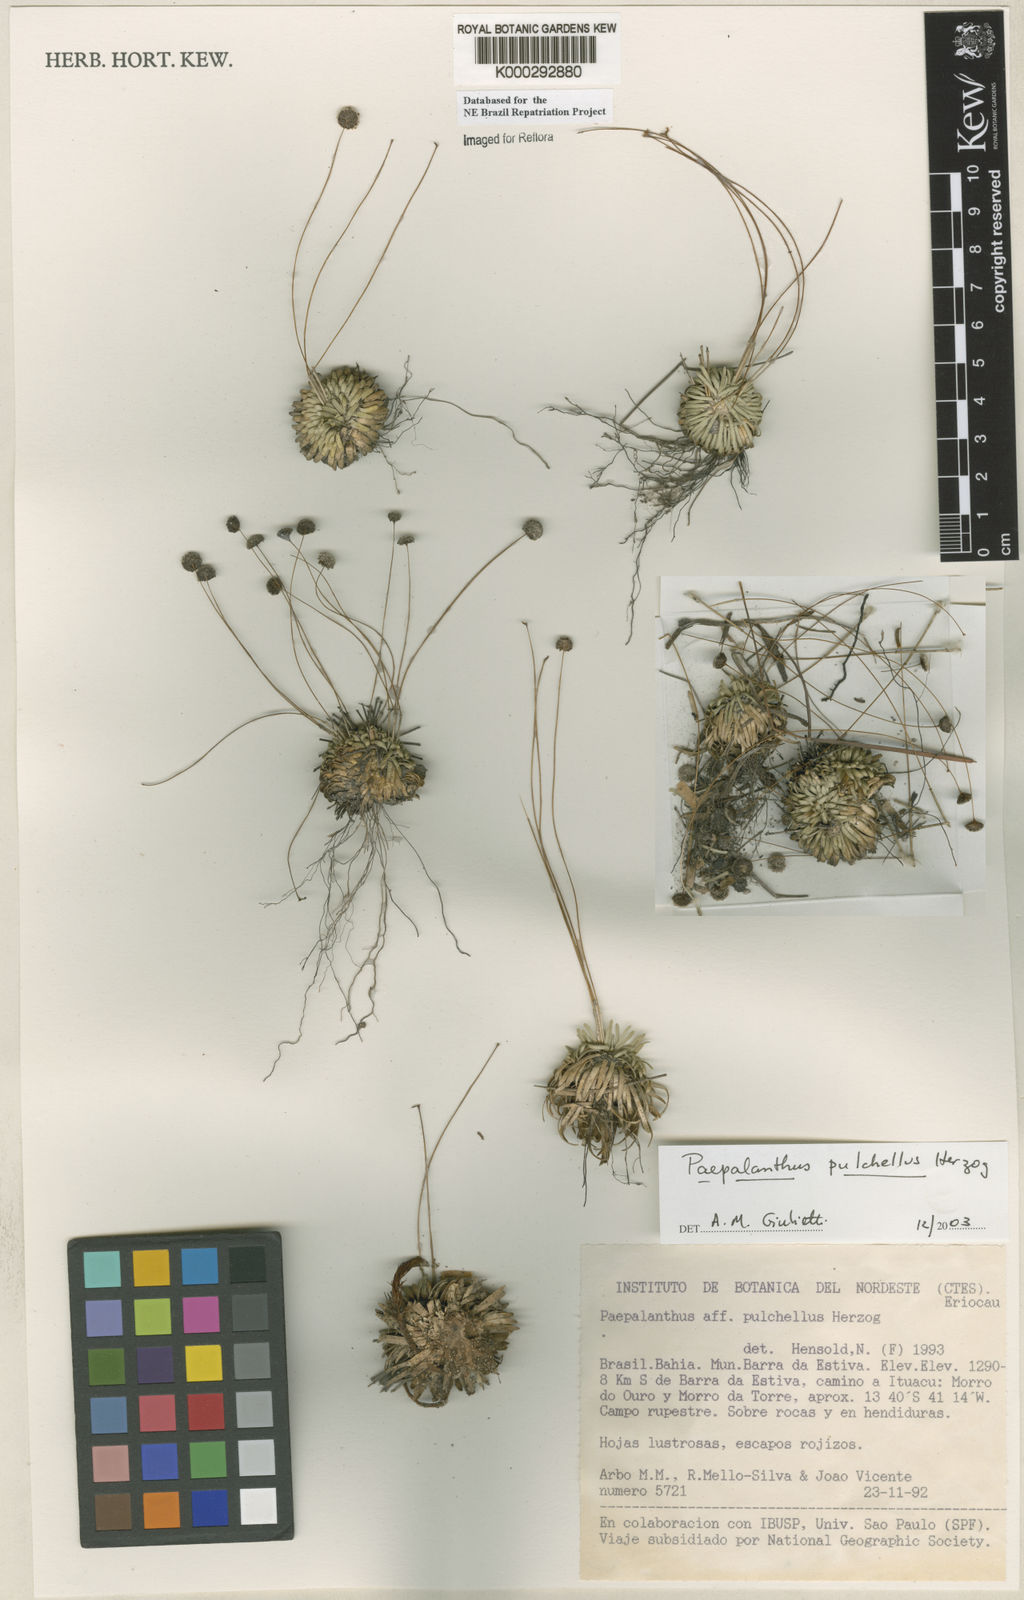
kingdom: Plantae
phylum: Tracheophyta
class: Liliopsida
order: Poales
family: Eriocaulaceae
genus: Paepalanthus
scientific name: Paepalanthus pulchellus
